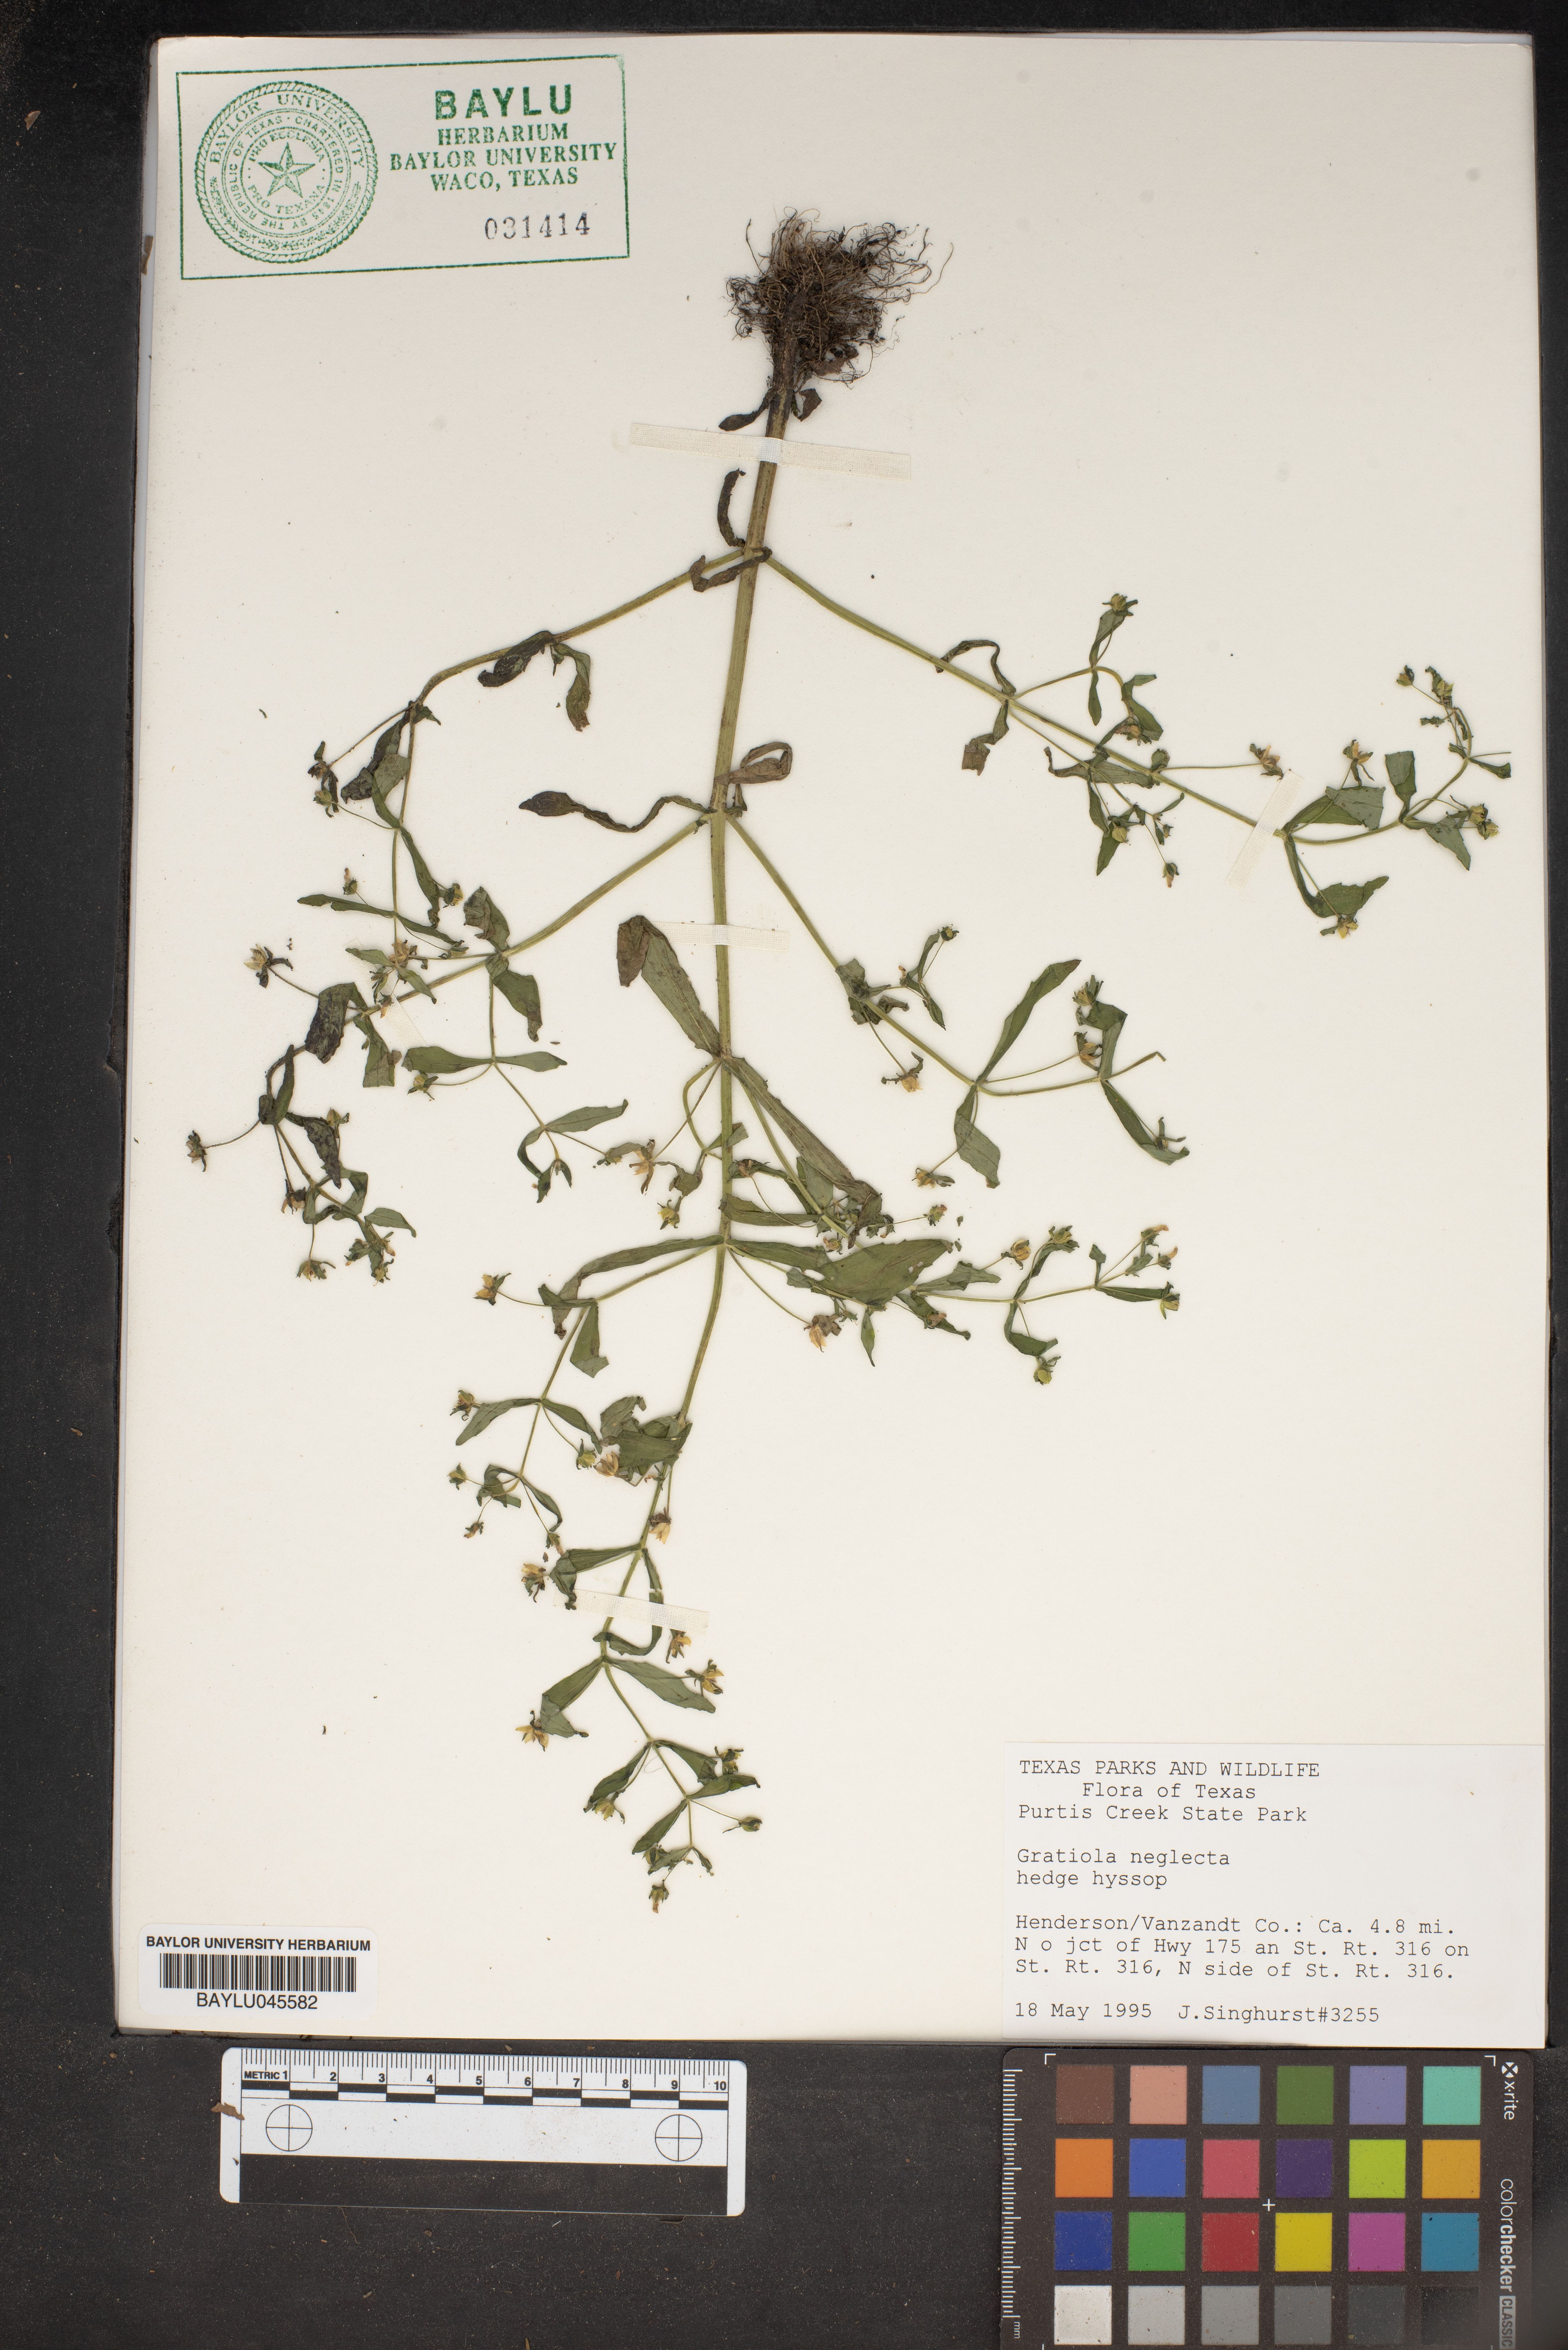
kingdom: Plantae
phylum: Tracheophyta
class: Magnoliopsida
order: Lamiales
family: Plantaginaceae
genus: Gratiola
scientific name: Gratiola neglecta
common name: American hedge-hyssop
